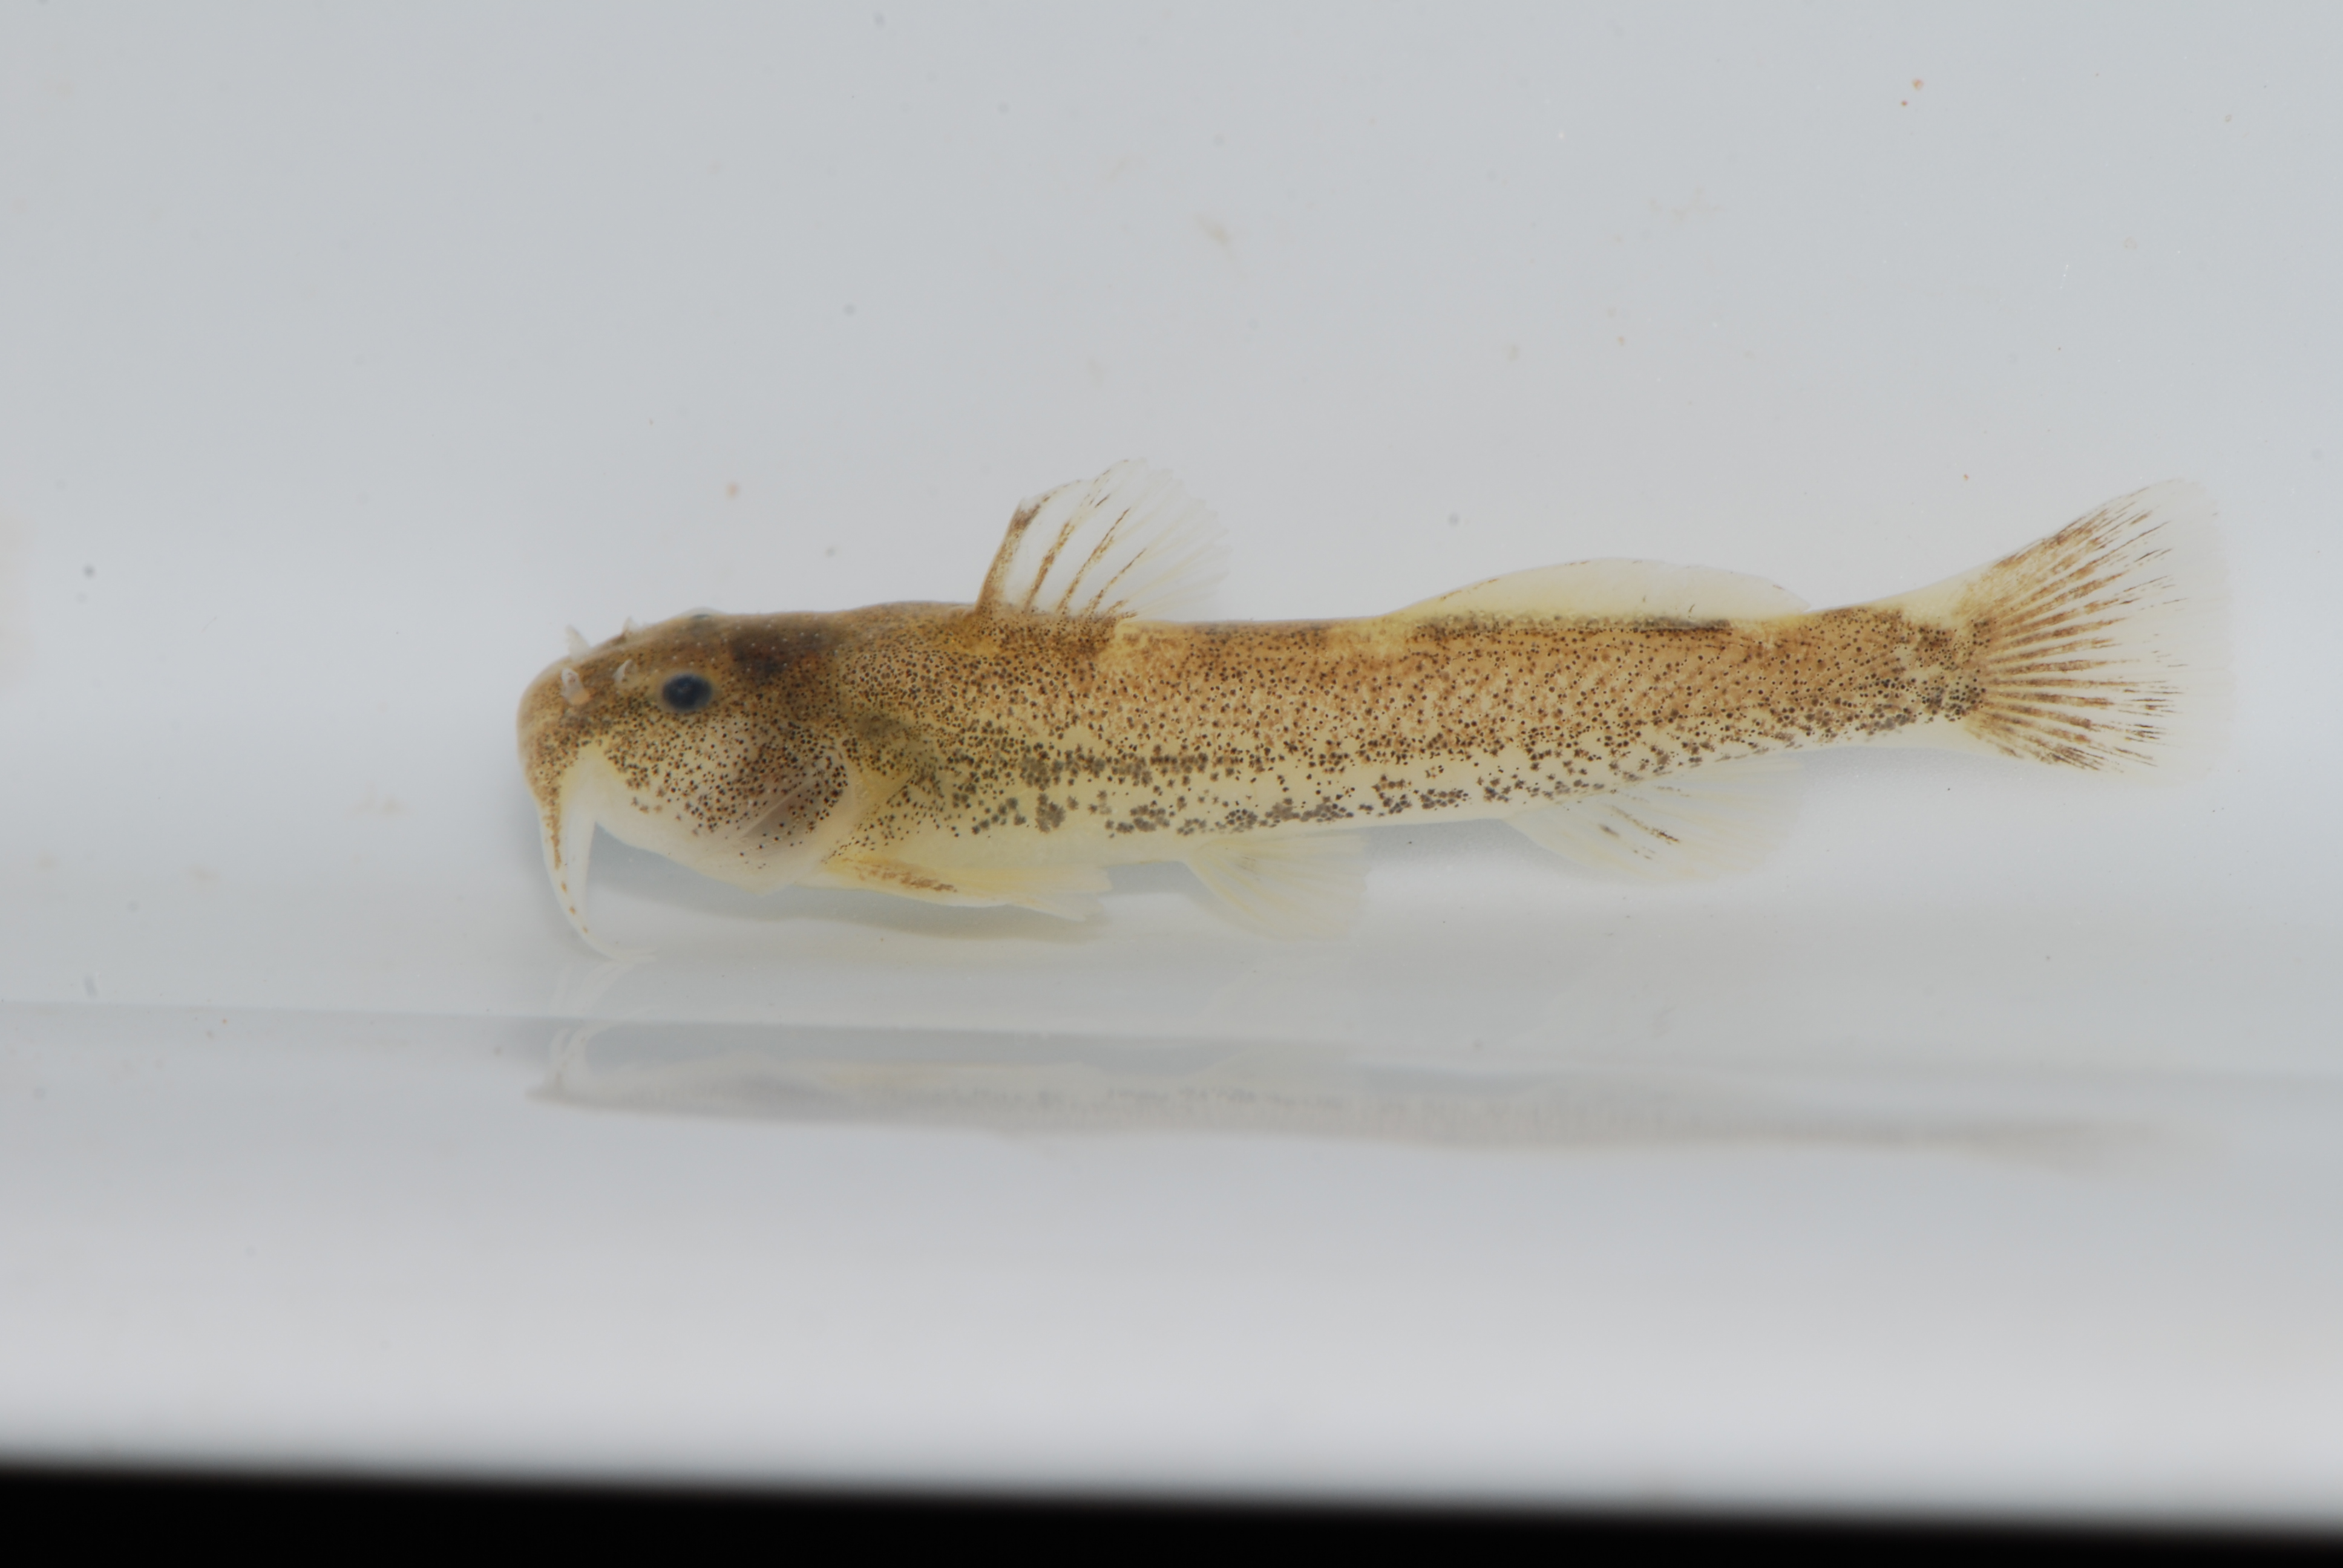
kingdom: Animalia
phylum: Chordata
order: Siluriformes
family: Amphiliidae
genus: Zaireichthys
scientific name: Zaireichthys
